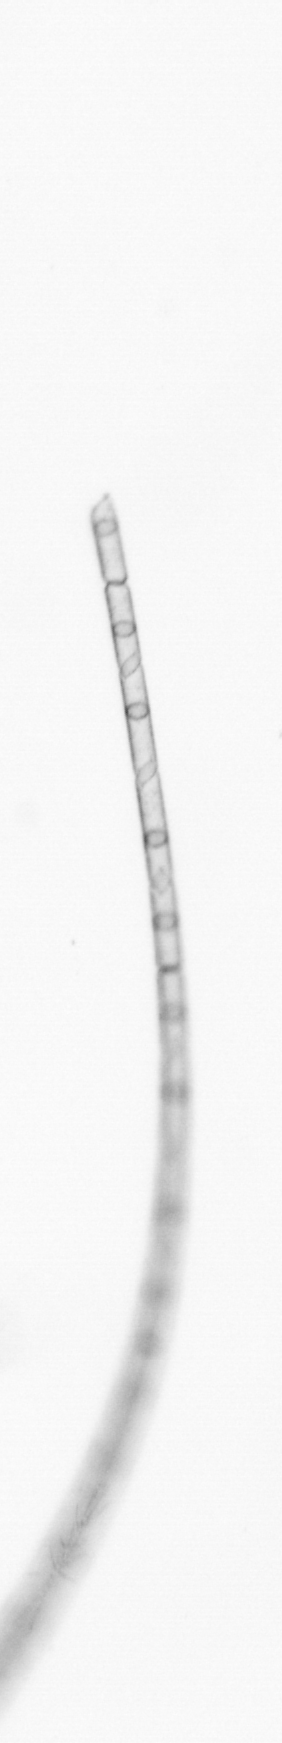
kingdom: Chromista
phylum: Ochrophyta
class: Bacillariophyceae
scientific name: Bacillariophyceae
